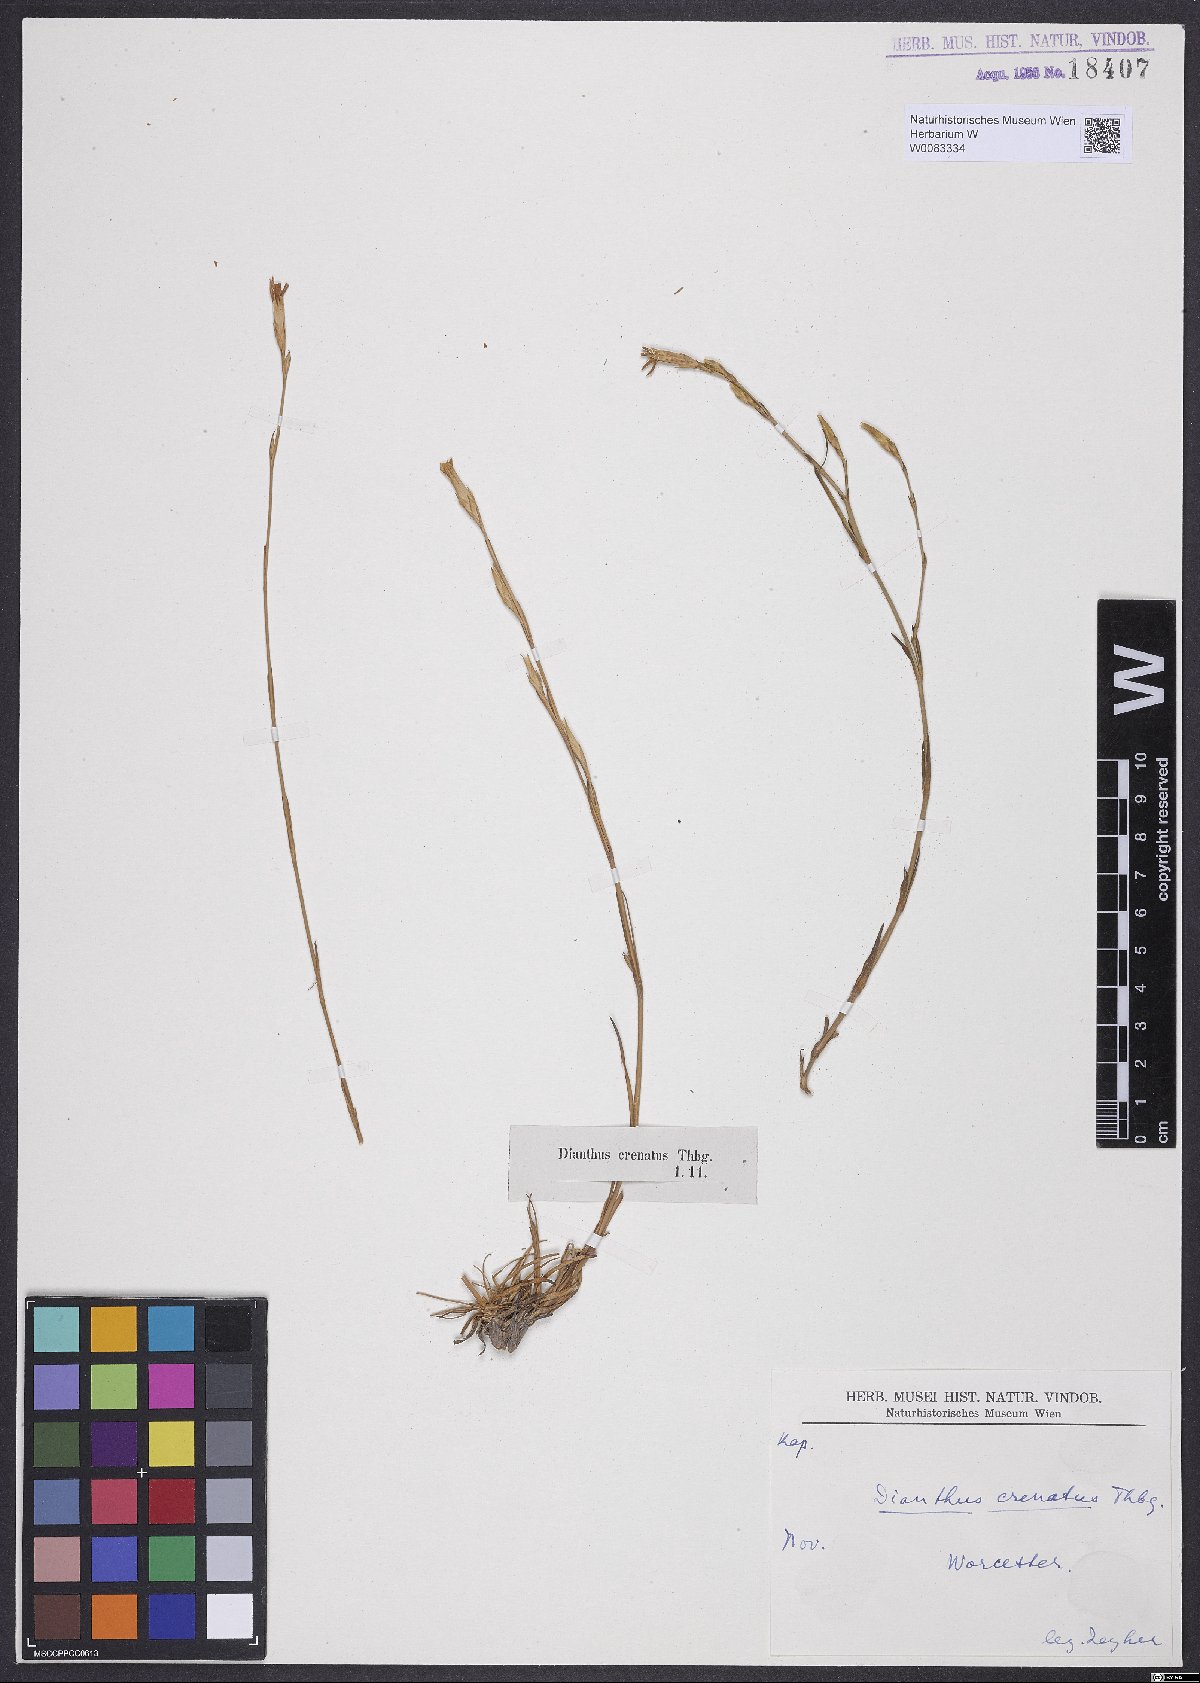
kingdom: Plantae
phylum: Tracheophyta
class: Magnoliopsida
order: Caryophyllales
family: Caryophyllaceae
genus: Dianthus
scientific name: Dianthus crenatus
